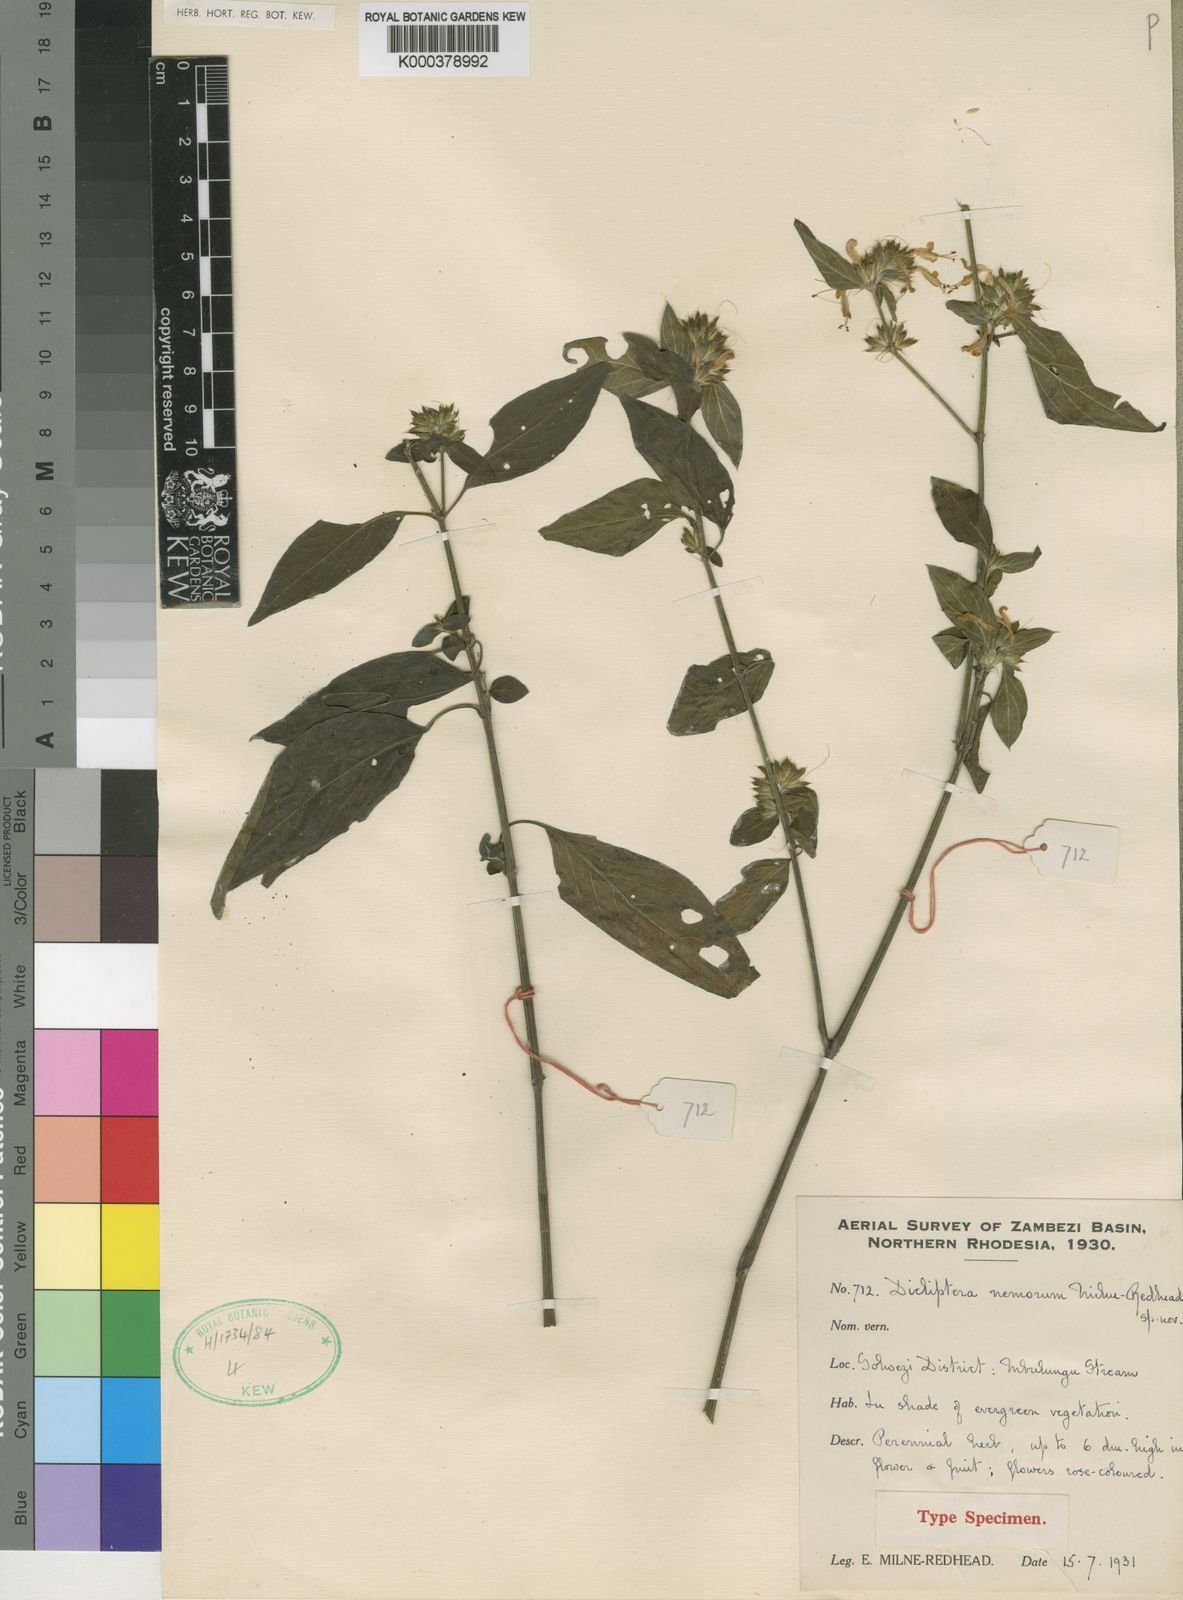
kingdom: Plantae
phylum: Tracheophyta
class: Magnoliopsida
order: Lamiales
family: Acanthaceae
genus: Dicliptera
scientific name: Dicliptera carvalhoi
